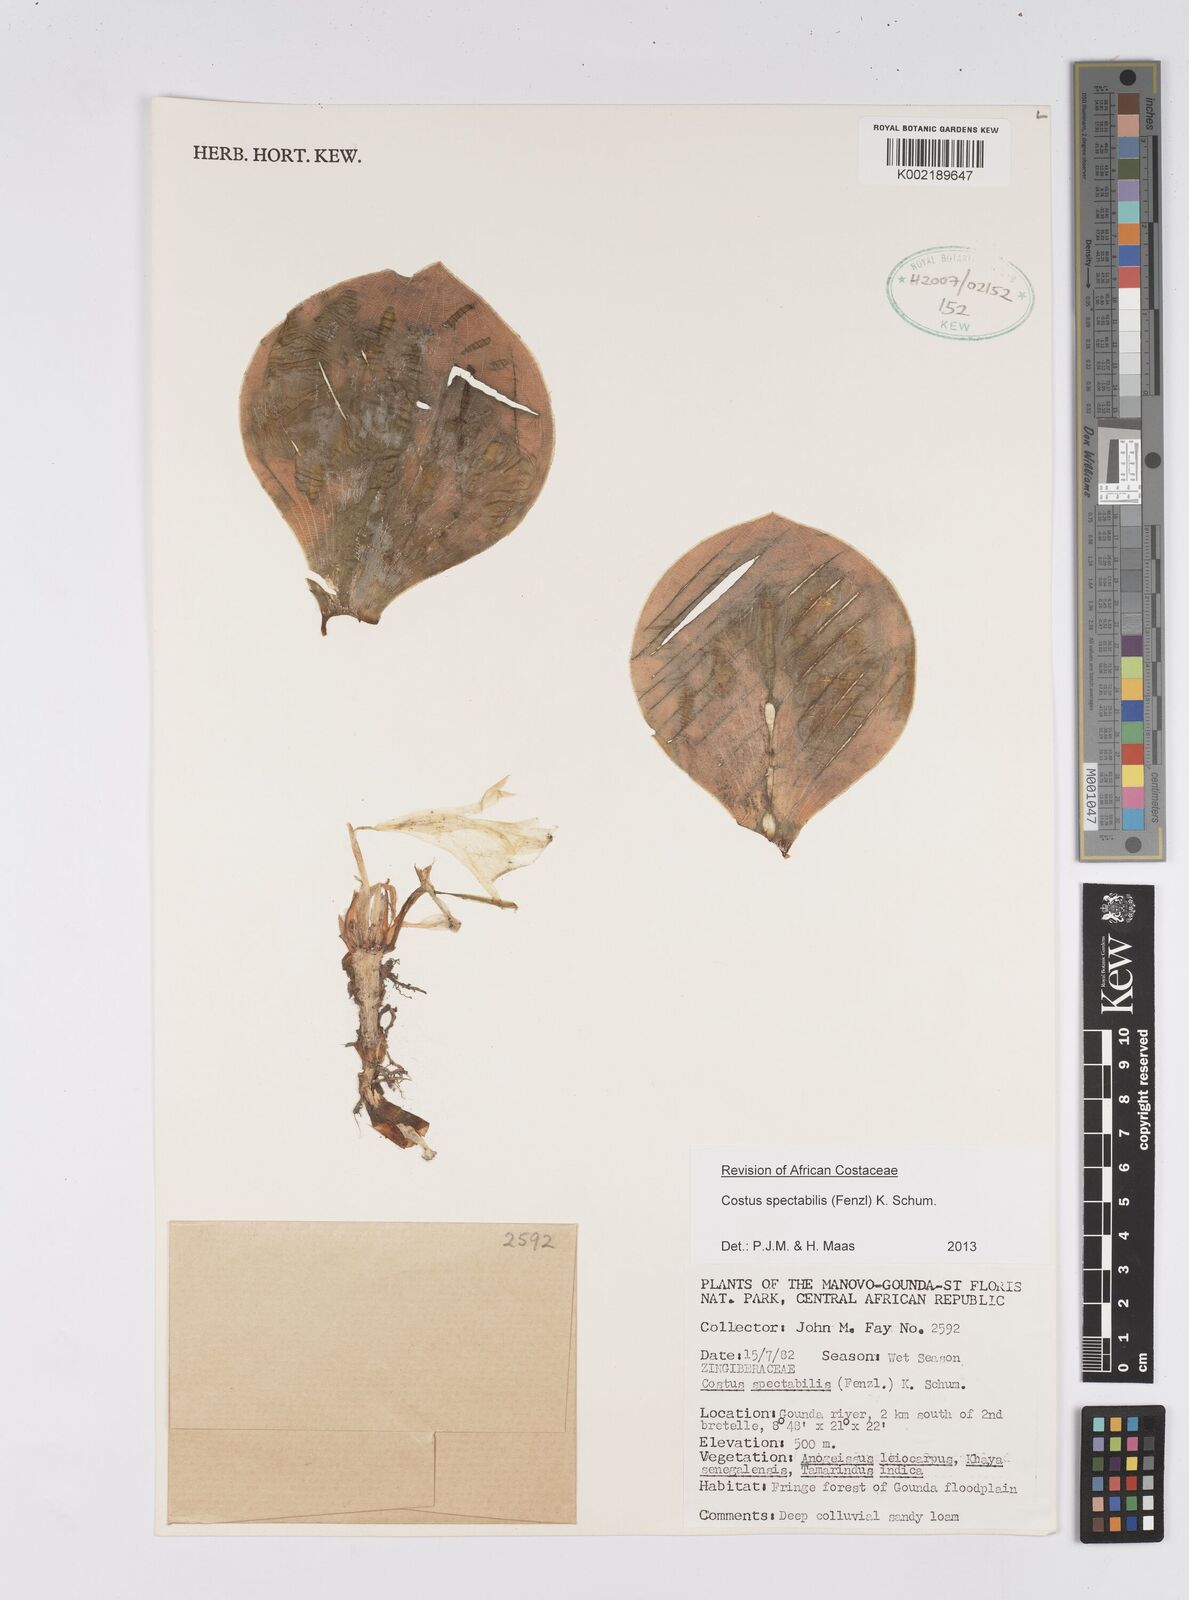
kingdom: Plantae
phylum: Tracheophyta
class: Liliopsida
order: Zingiberales
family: Costaceae
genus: Costus
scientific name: Costus spectabilis
